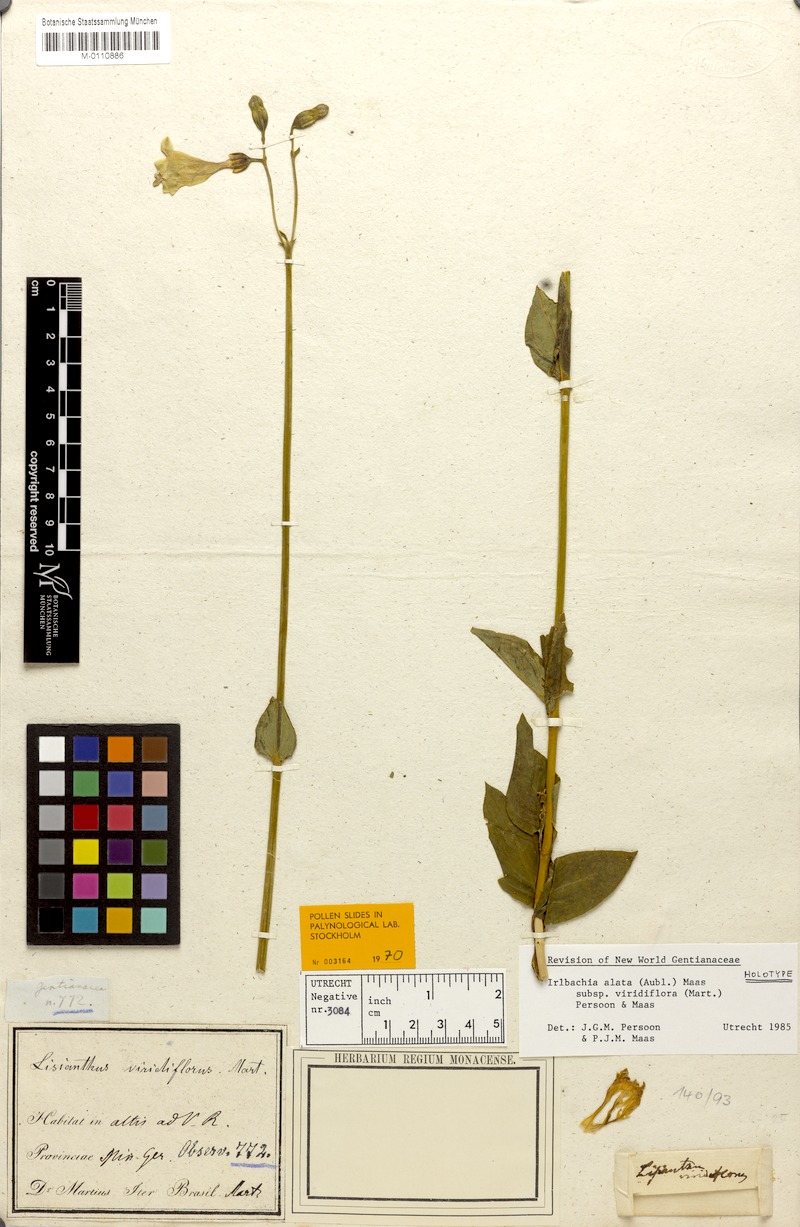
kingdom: Plantae
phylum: Tracheophyta
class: Magnoliopsida
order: Gentianales
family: Gentianaceae
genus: Chelonanthus
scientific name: Chelonanthus viridiflorus
